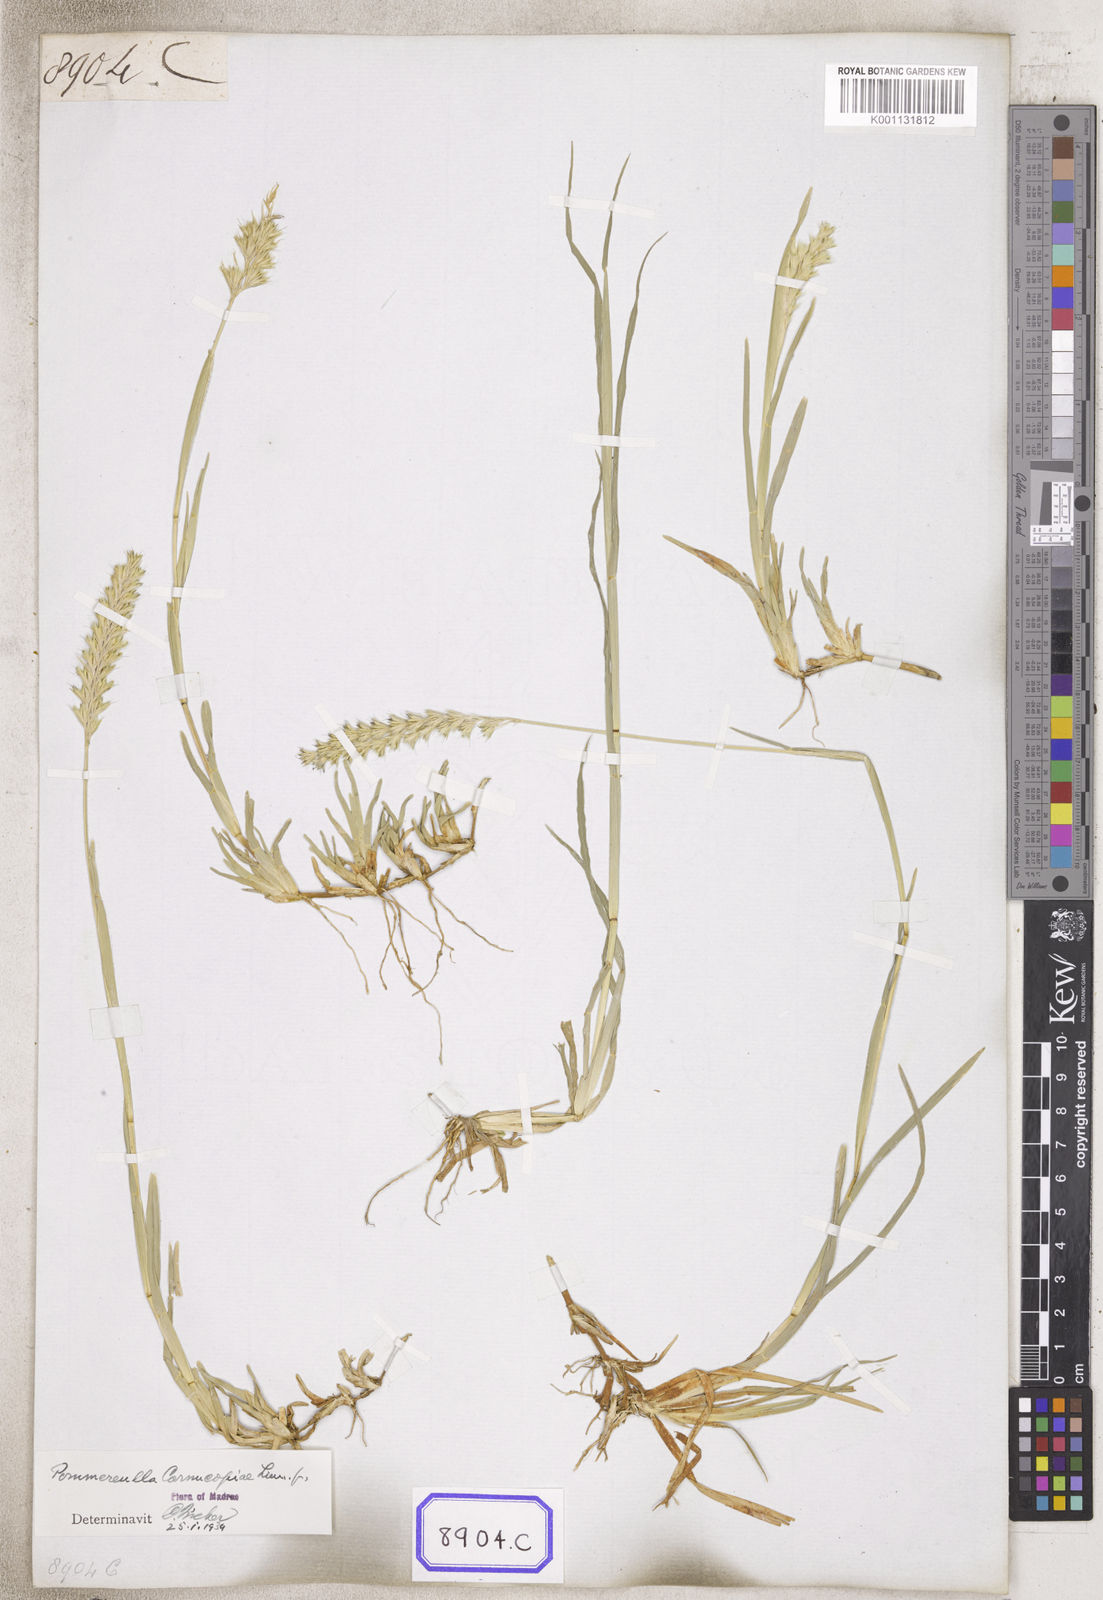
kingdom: Plantae
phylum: Tracheophyta
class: Liliopsida
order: Poales
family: Poaceae
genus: Pommereulla
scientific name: Pommereulla cornucopiae
